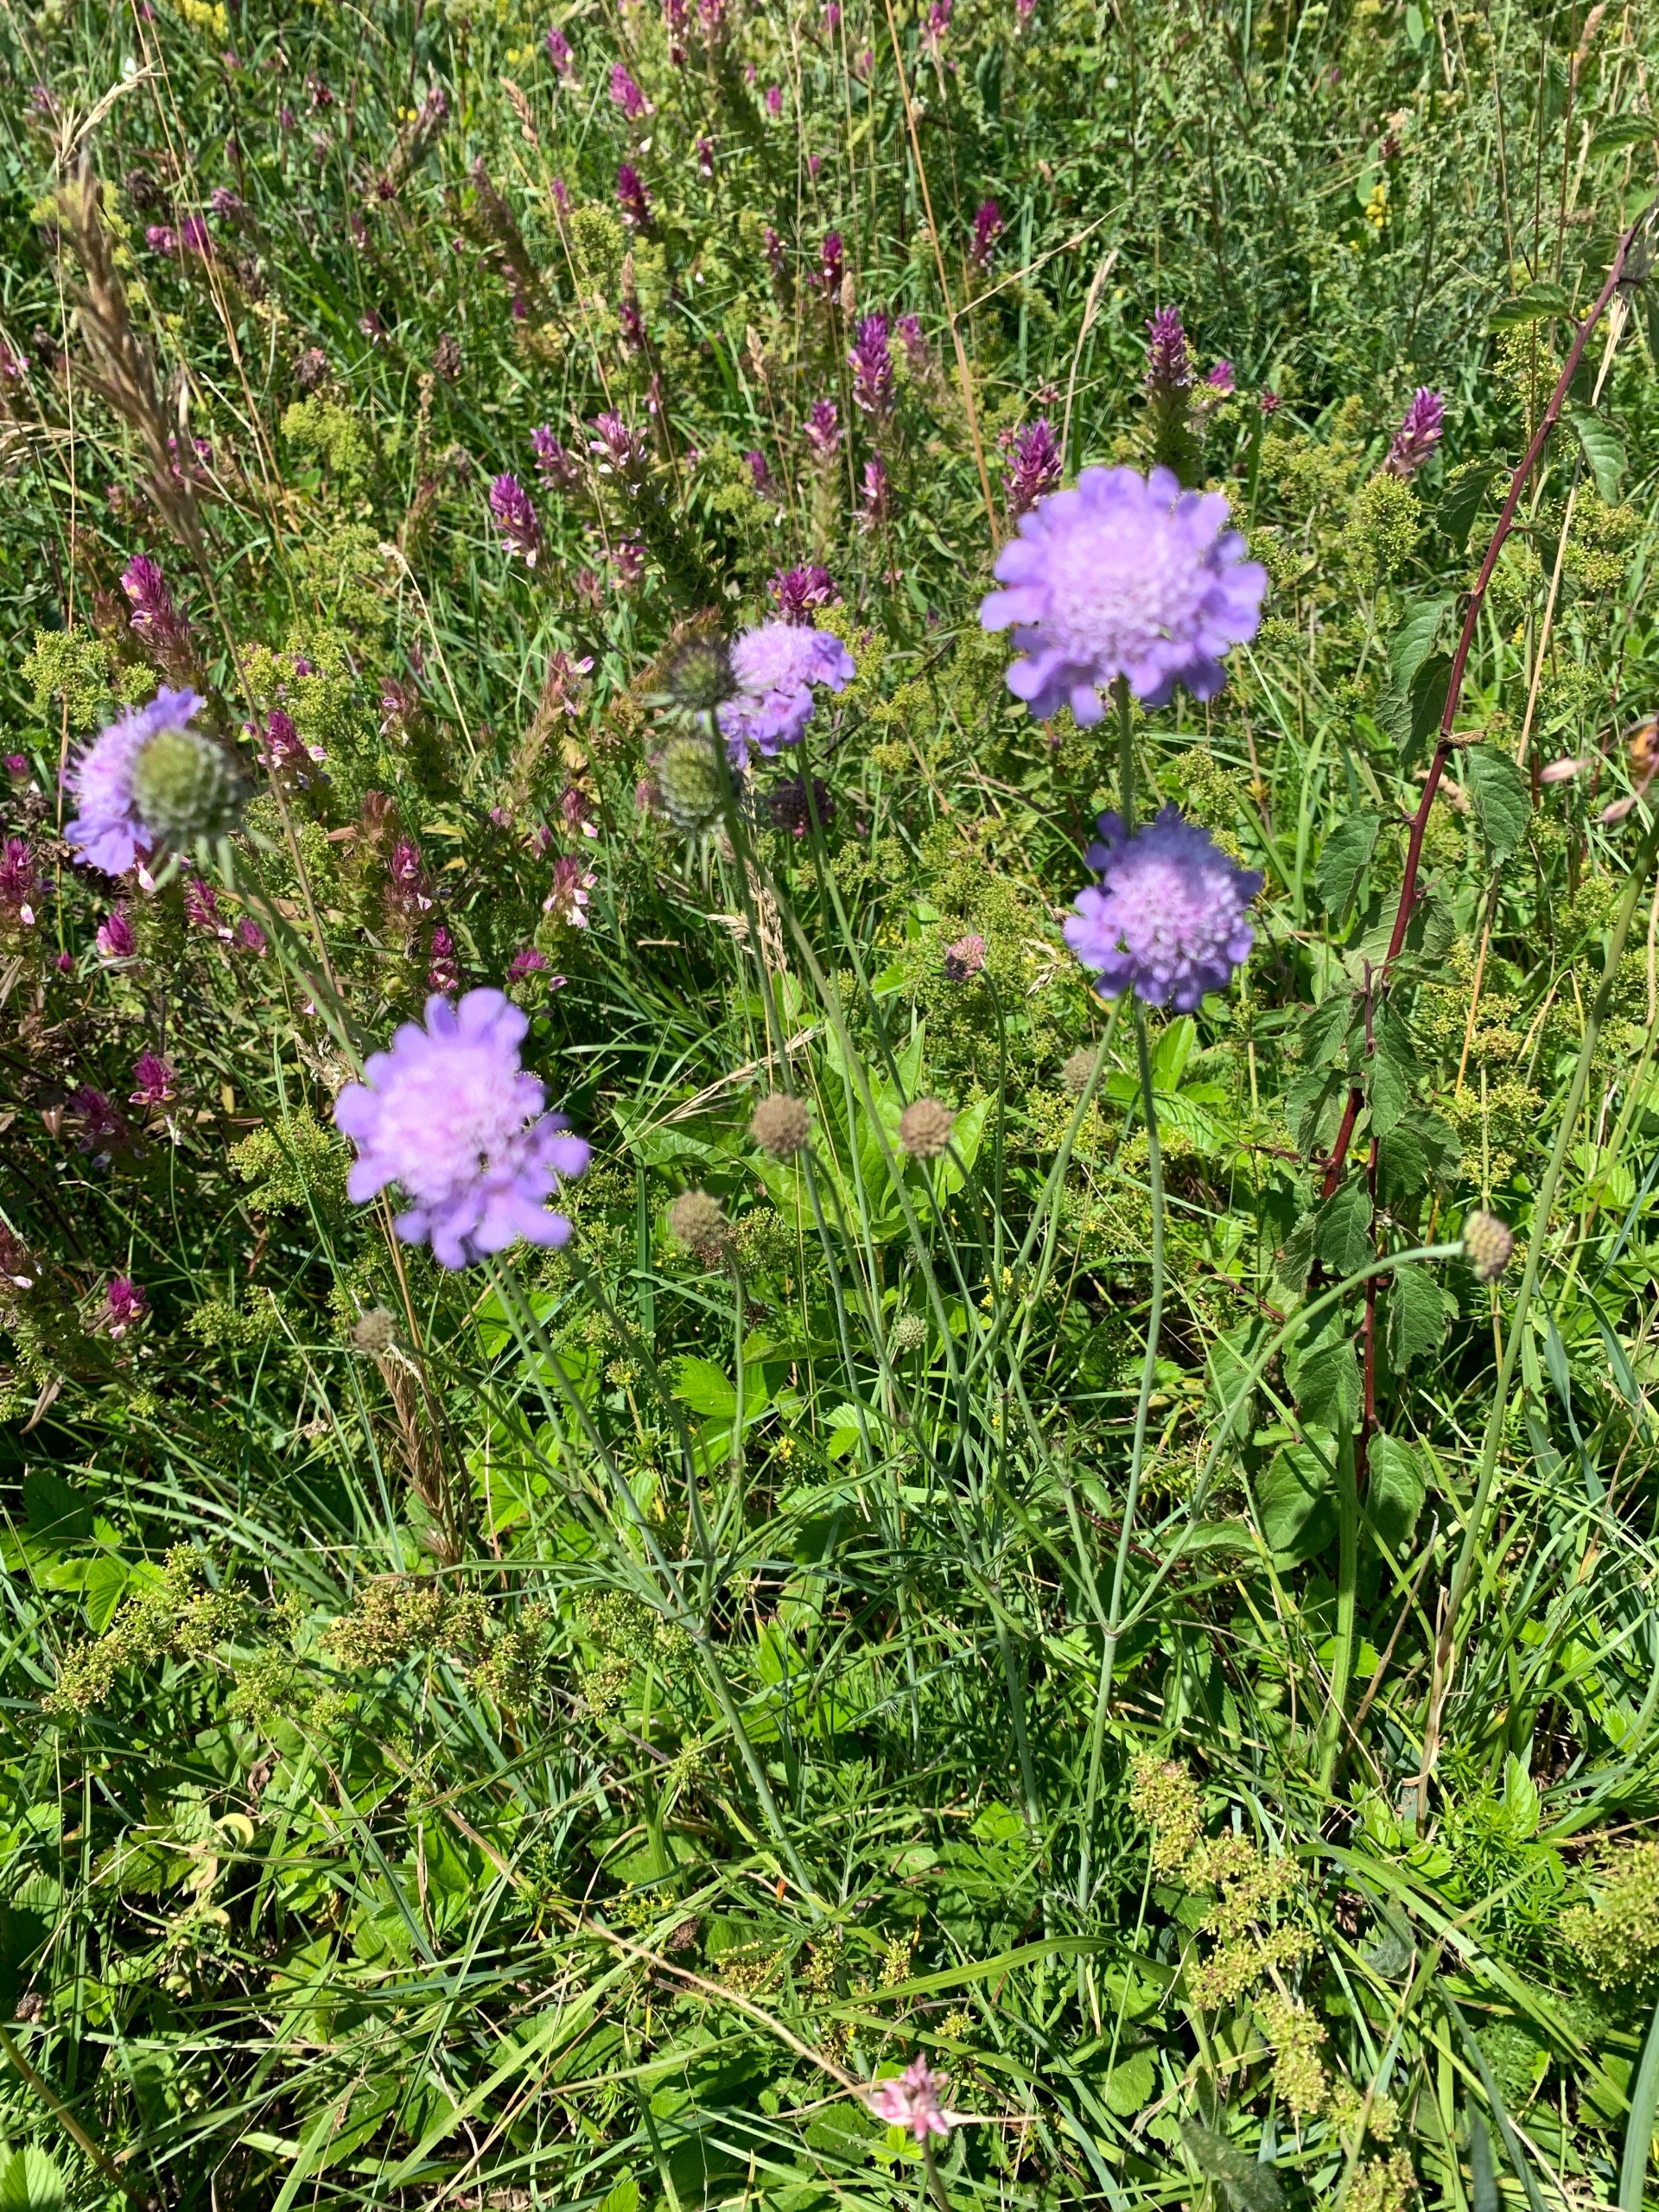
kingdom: Plantae
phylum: Tracheophyta
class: Magnoliopsida
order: Dipsacales
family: Caprifoliaceae
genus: Scabiosa
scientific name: Scabiosa columbaria
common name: Due-skabiose
